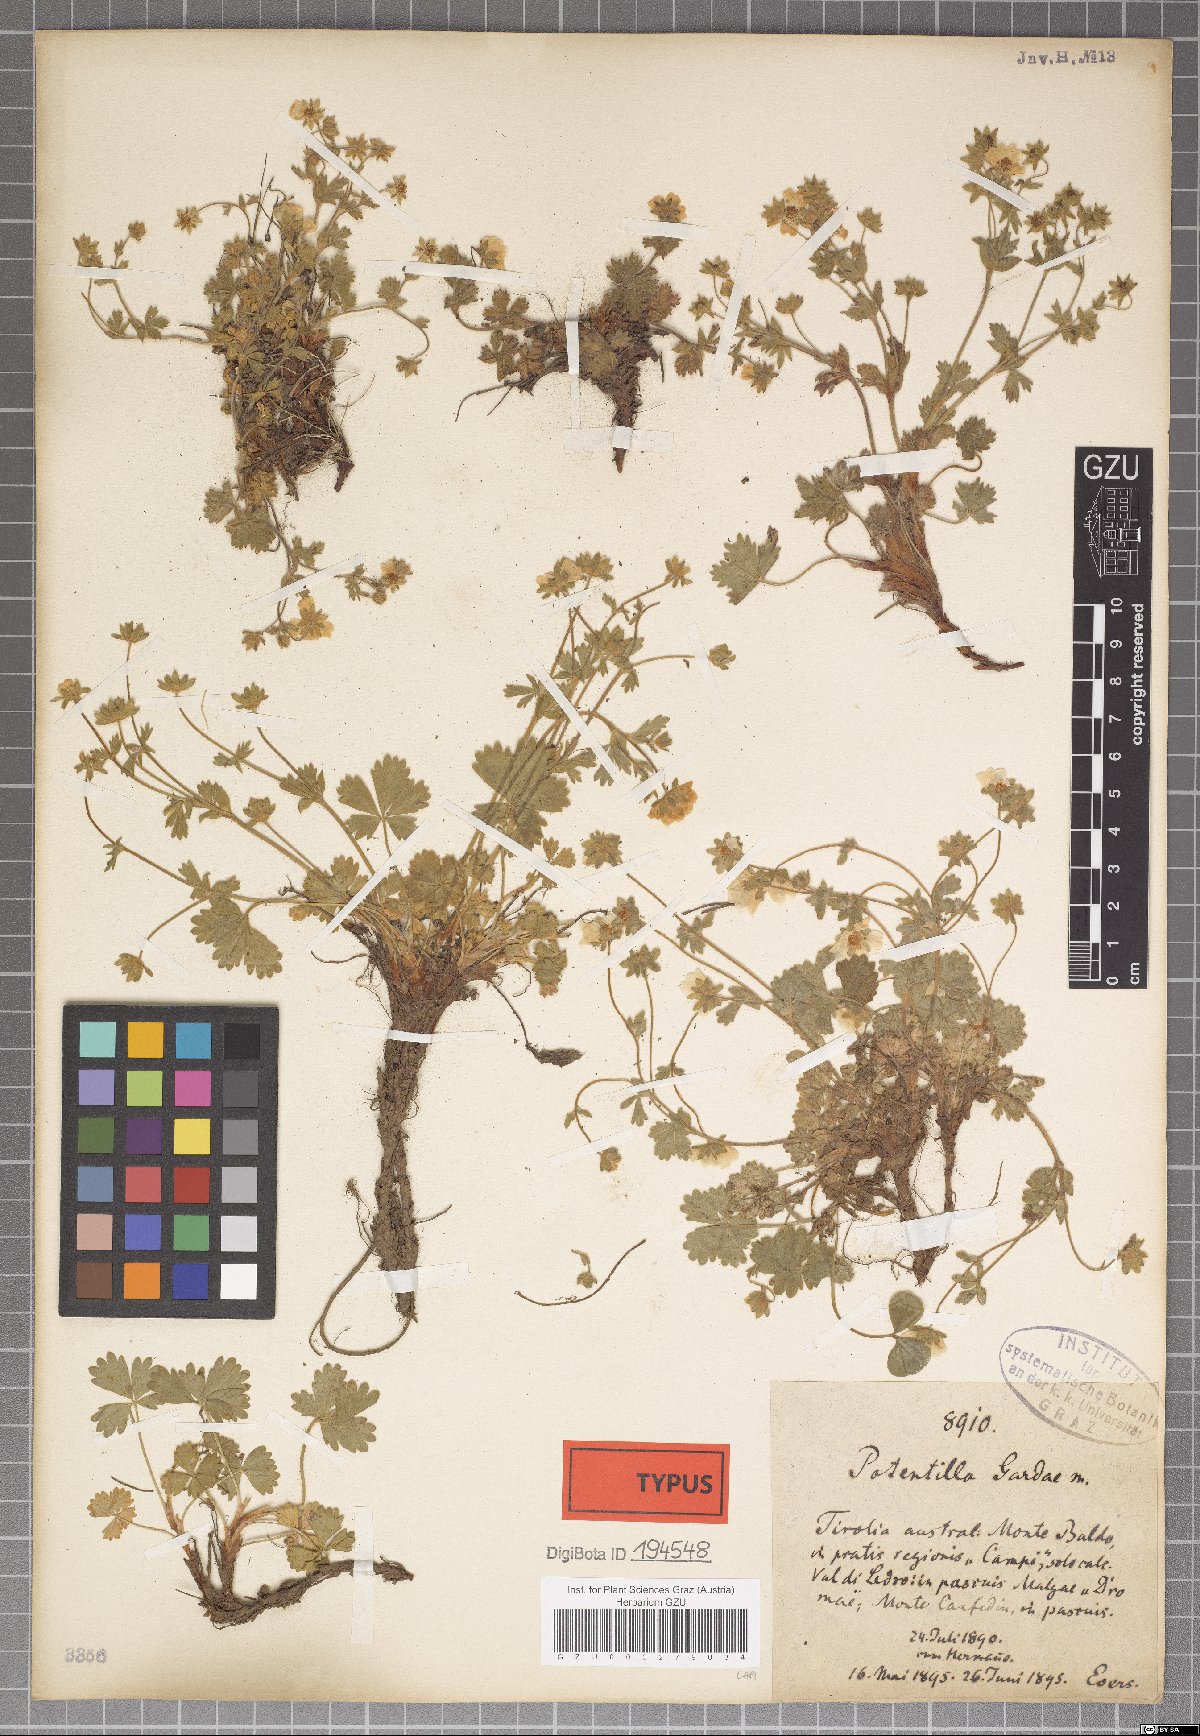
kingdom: Plantae
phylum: Tracheophyta
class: Magnoliopsida
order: Rosales
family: Rosaceae
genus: Potentilla
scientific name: Potentilla crantzii
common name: Alpine cinquefoil
